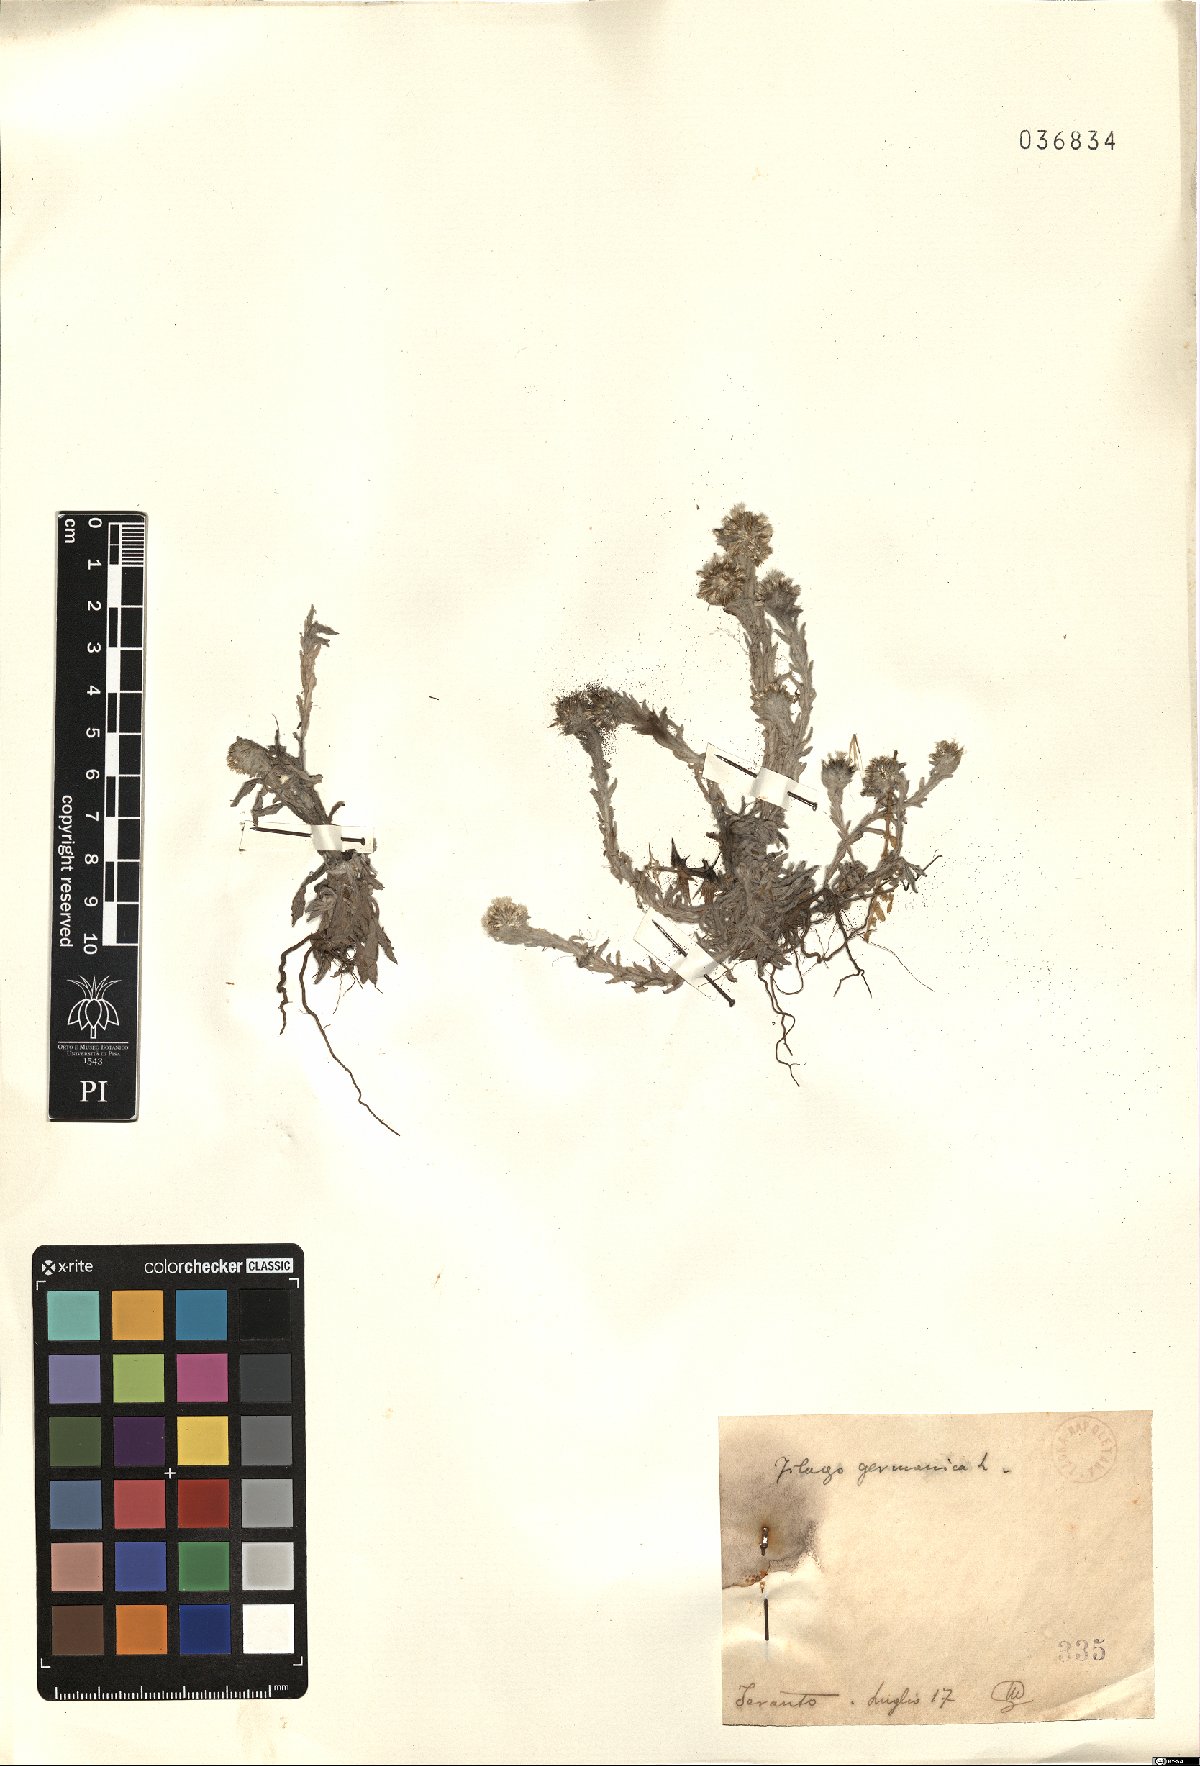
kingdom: Plantae
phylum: Tracheophyta
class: Magnoliopsida
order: Asterales
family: Asteraceae
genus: Filago
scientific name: Filago germanica
